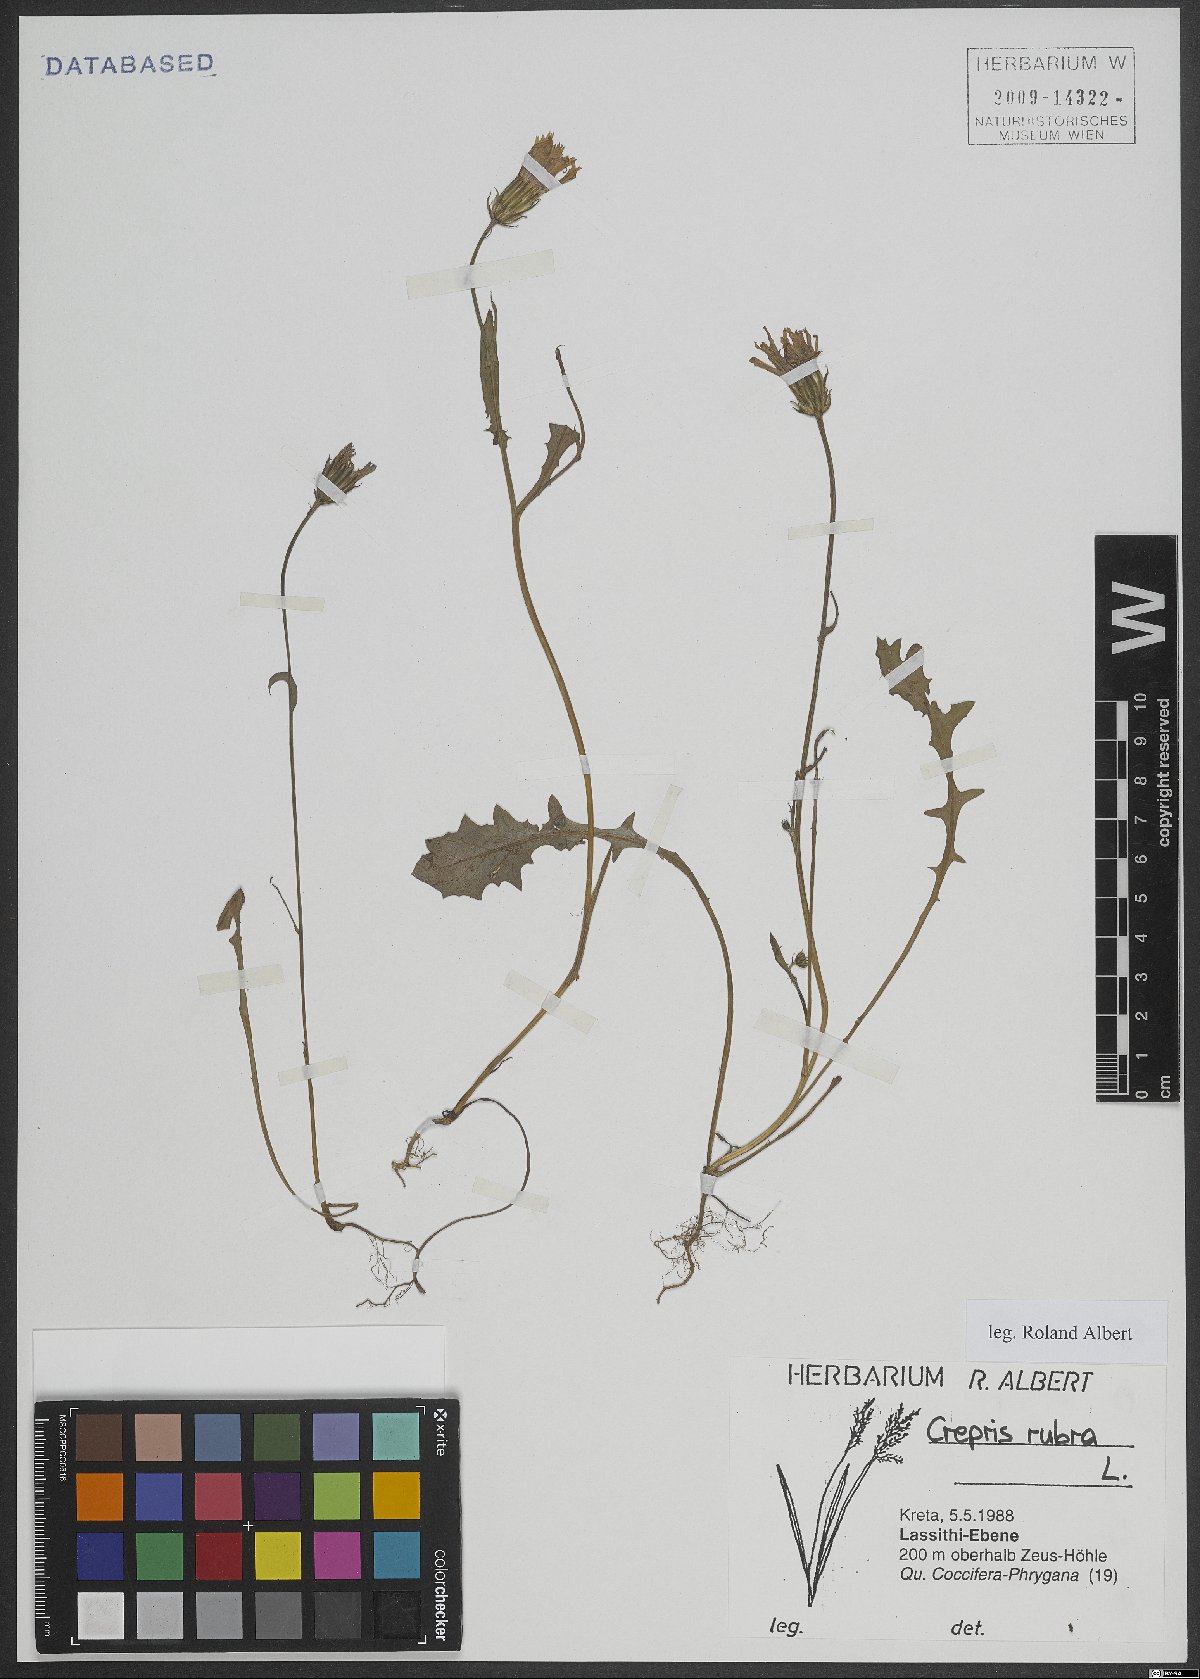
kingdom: Plantae
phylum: Tracheophyta
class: Magnoliopsida
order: Asterales
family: Asteraceae
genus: Crepis
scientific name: Crepis rubra
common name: Pink hawk's-beard
